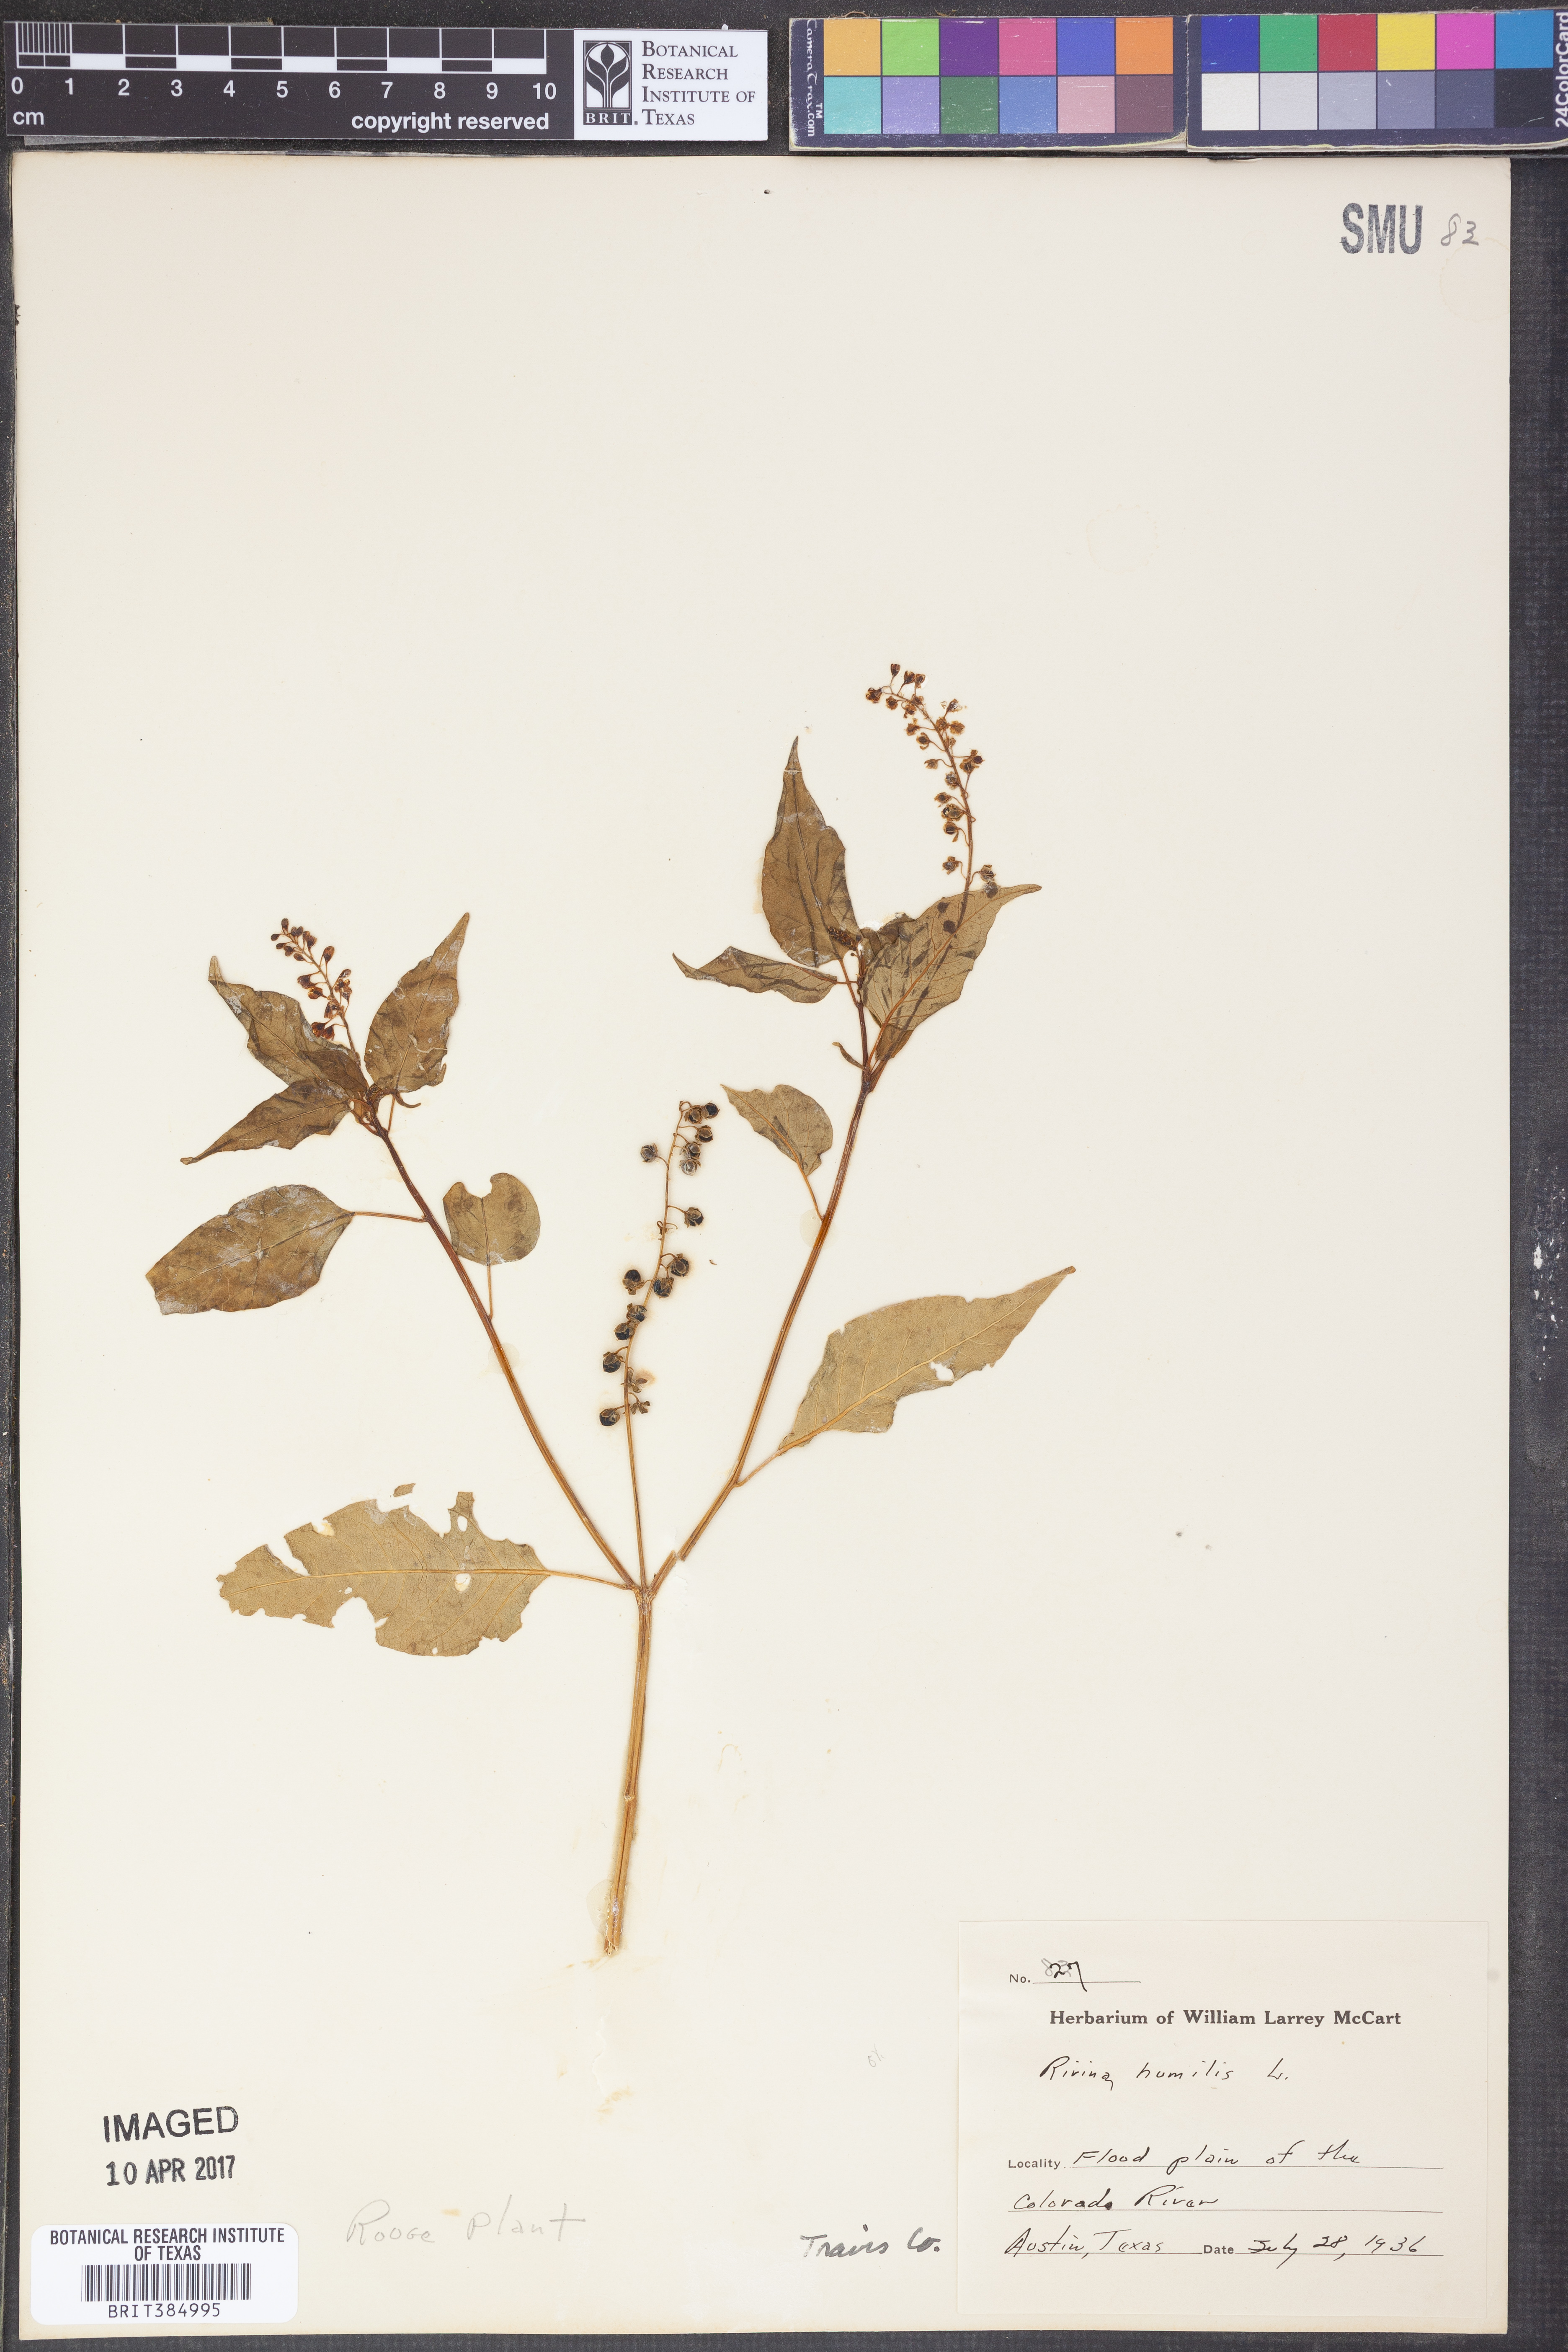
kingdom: Plantae
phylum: Tracheophyta
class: Magnoliopsida
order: Caryophyllales
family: Phytolaccaceae
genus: Rivina
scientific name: Rivina humilis
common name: Rougeplant
